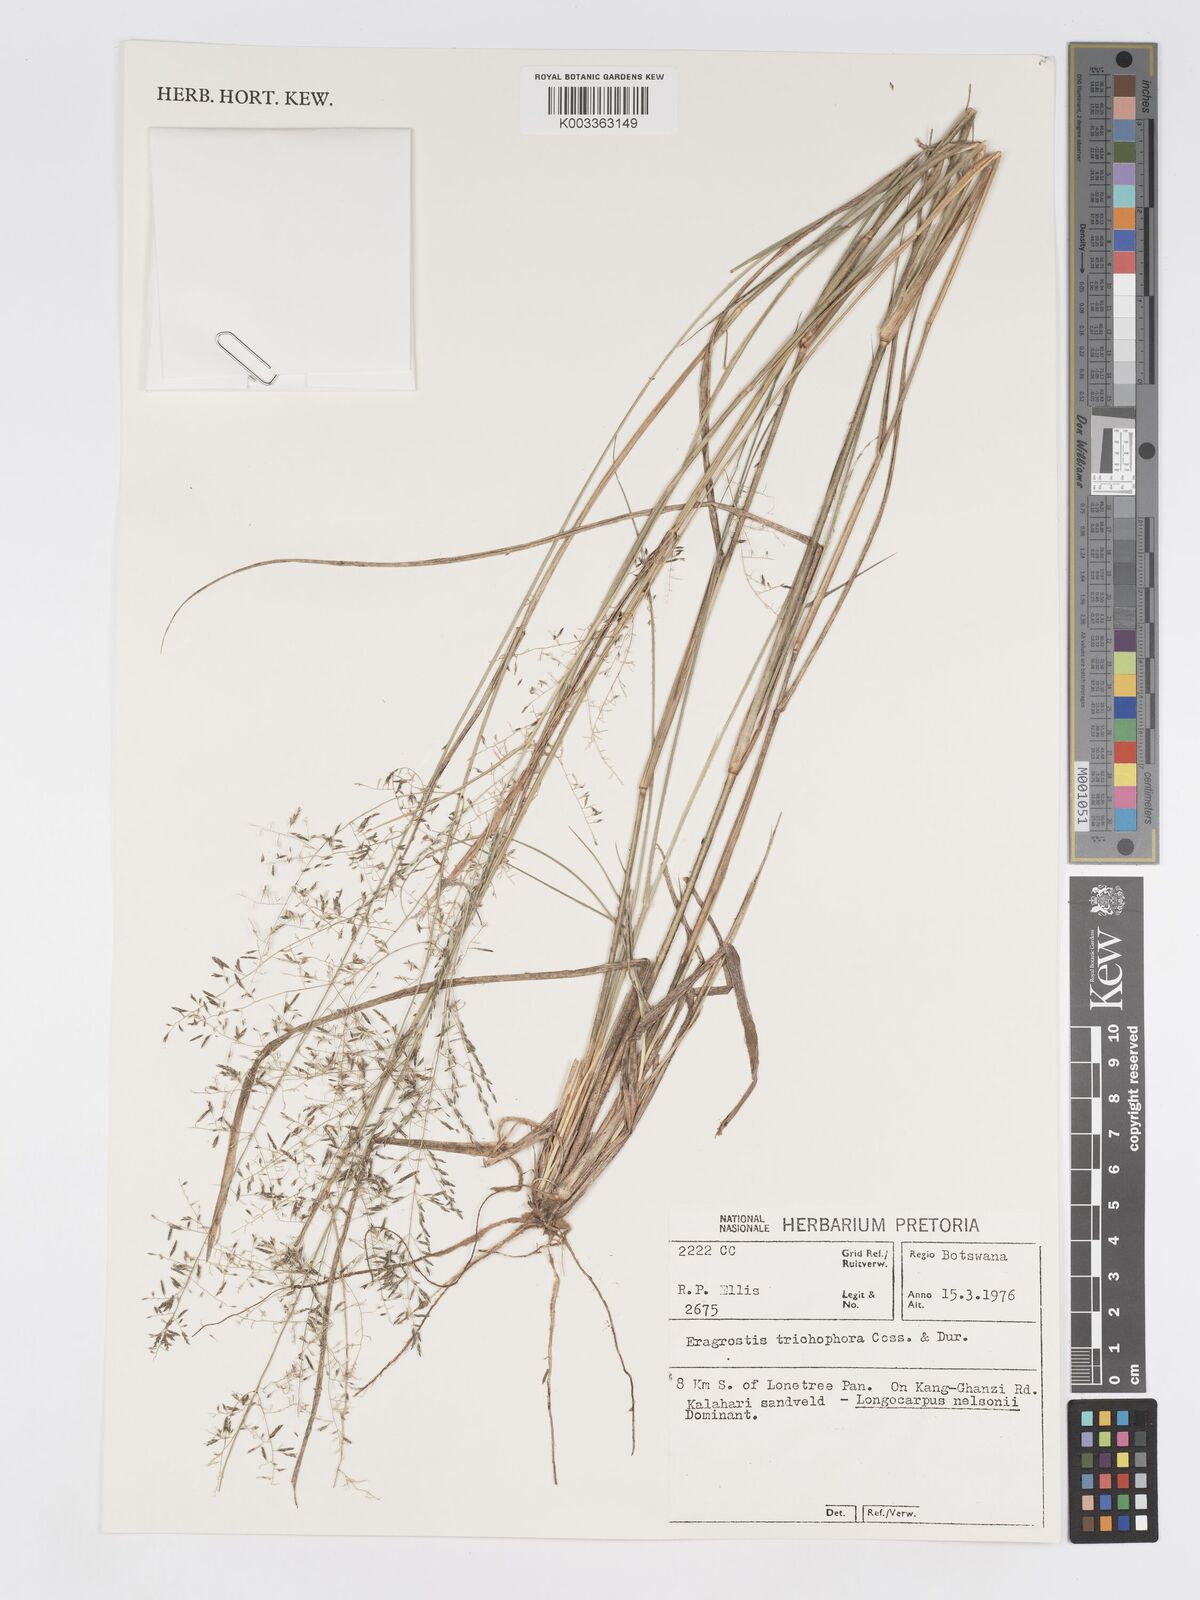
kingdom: Plantae
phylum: Tracheophyta
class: Liliopsida
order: Poales
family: Poaceae
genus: Eragrostis
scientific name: Eragrostis cylindriflora
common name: Cylinderflower lovegrass
